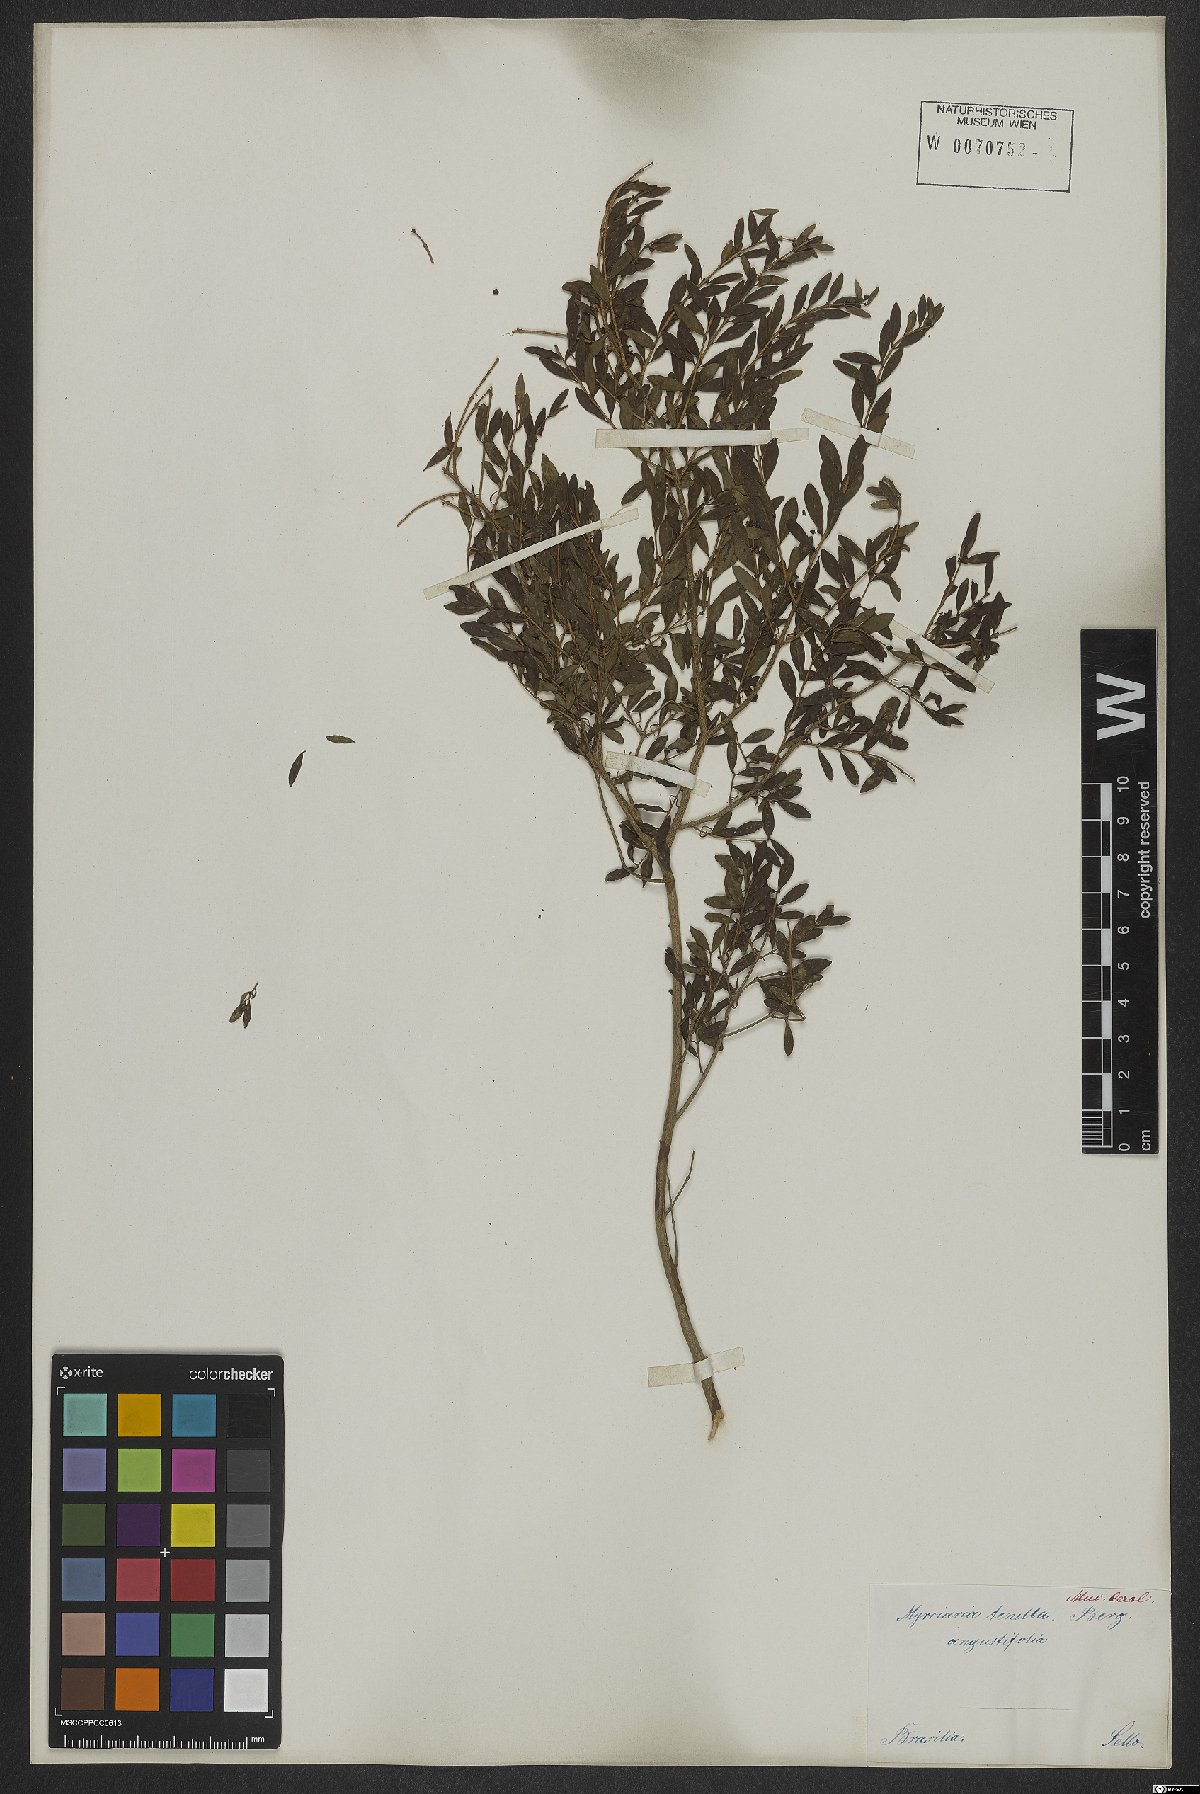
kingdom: Plantae
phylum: Tracheophyta
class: Magnoliopsida
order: Myrtales
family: Myrtaceae
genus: Myrciaria
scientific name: Myrciaria tenella
